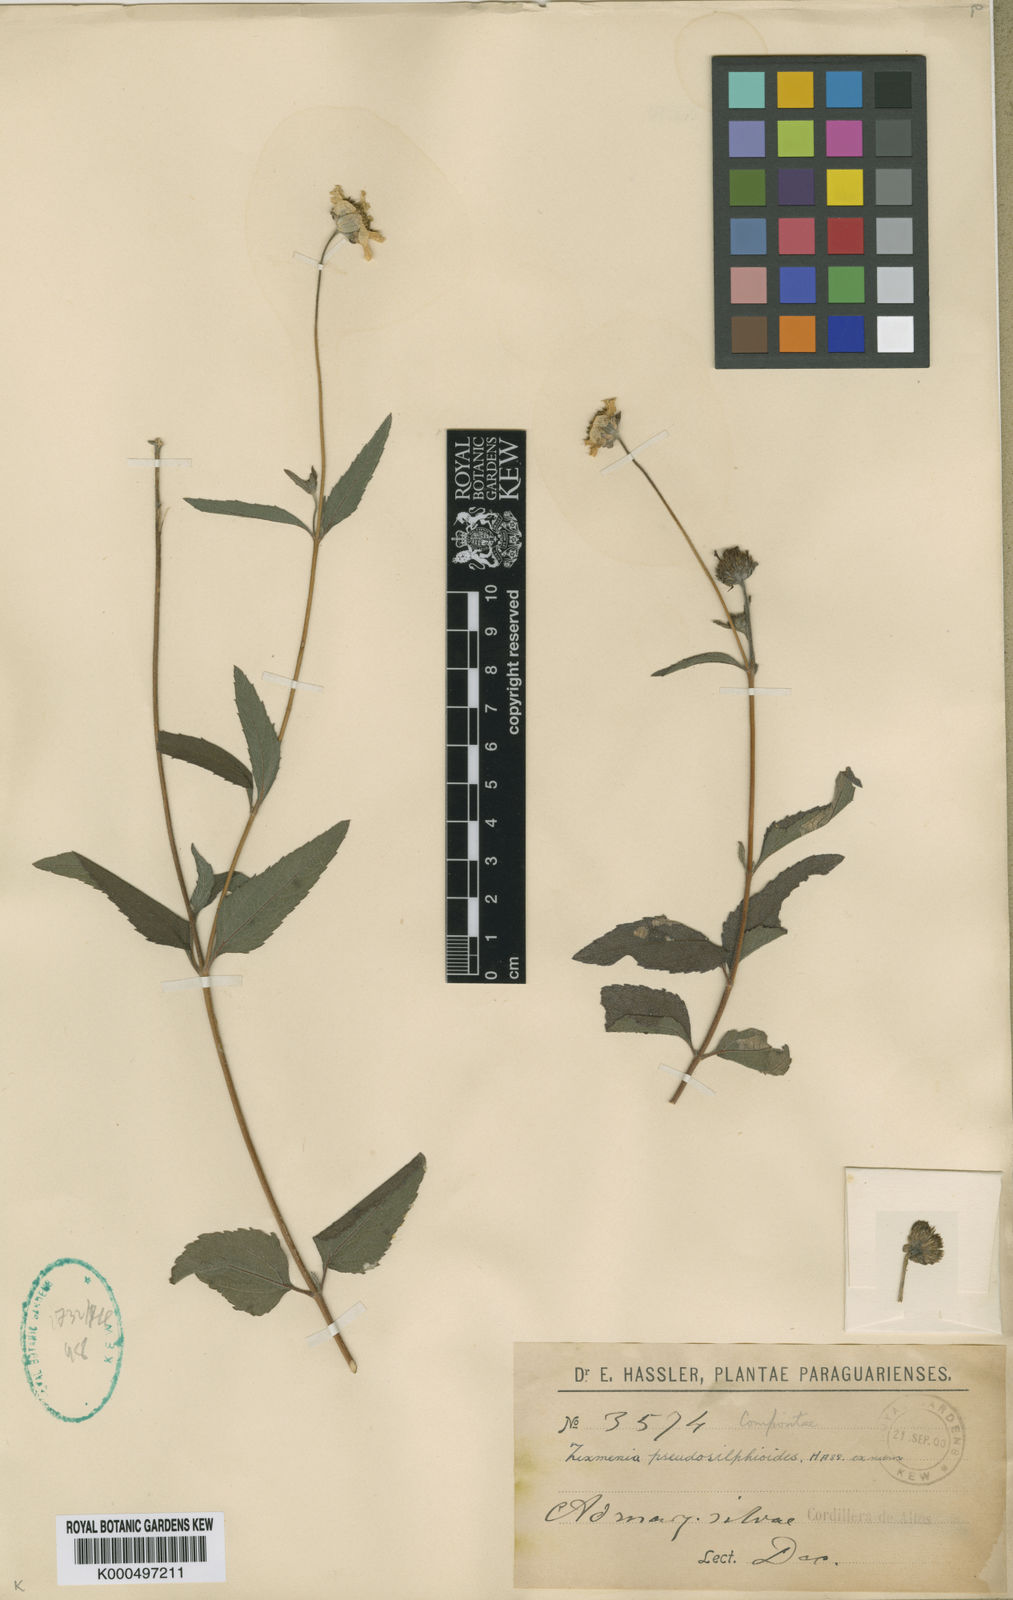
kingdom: Plantae
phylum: Tracheophyta
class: Magnoliopsida
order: Asterales
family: Asteraceae
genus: Dimerostemma
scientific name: Dimerostemma pseudosilphioides
